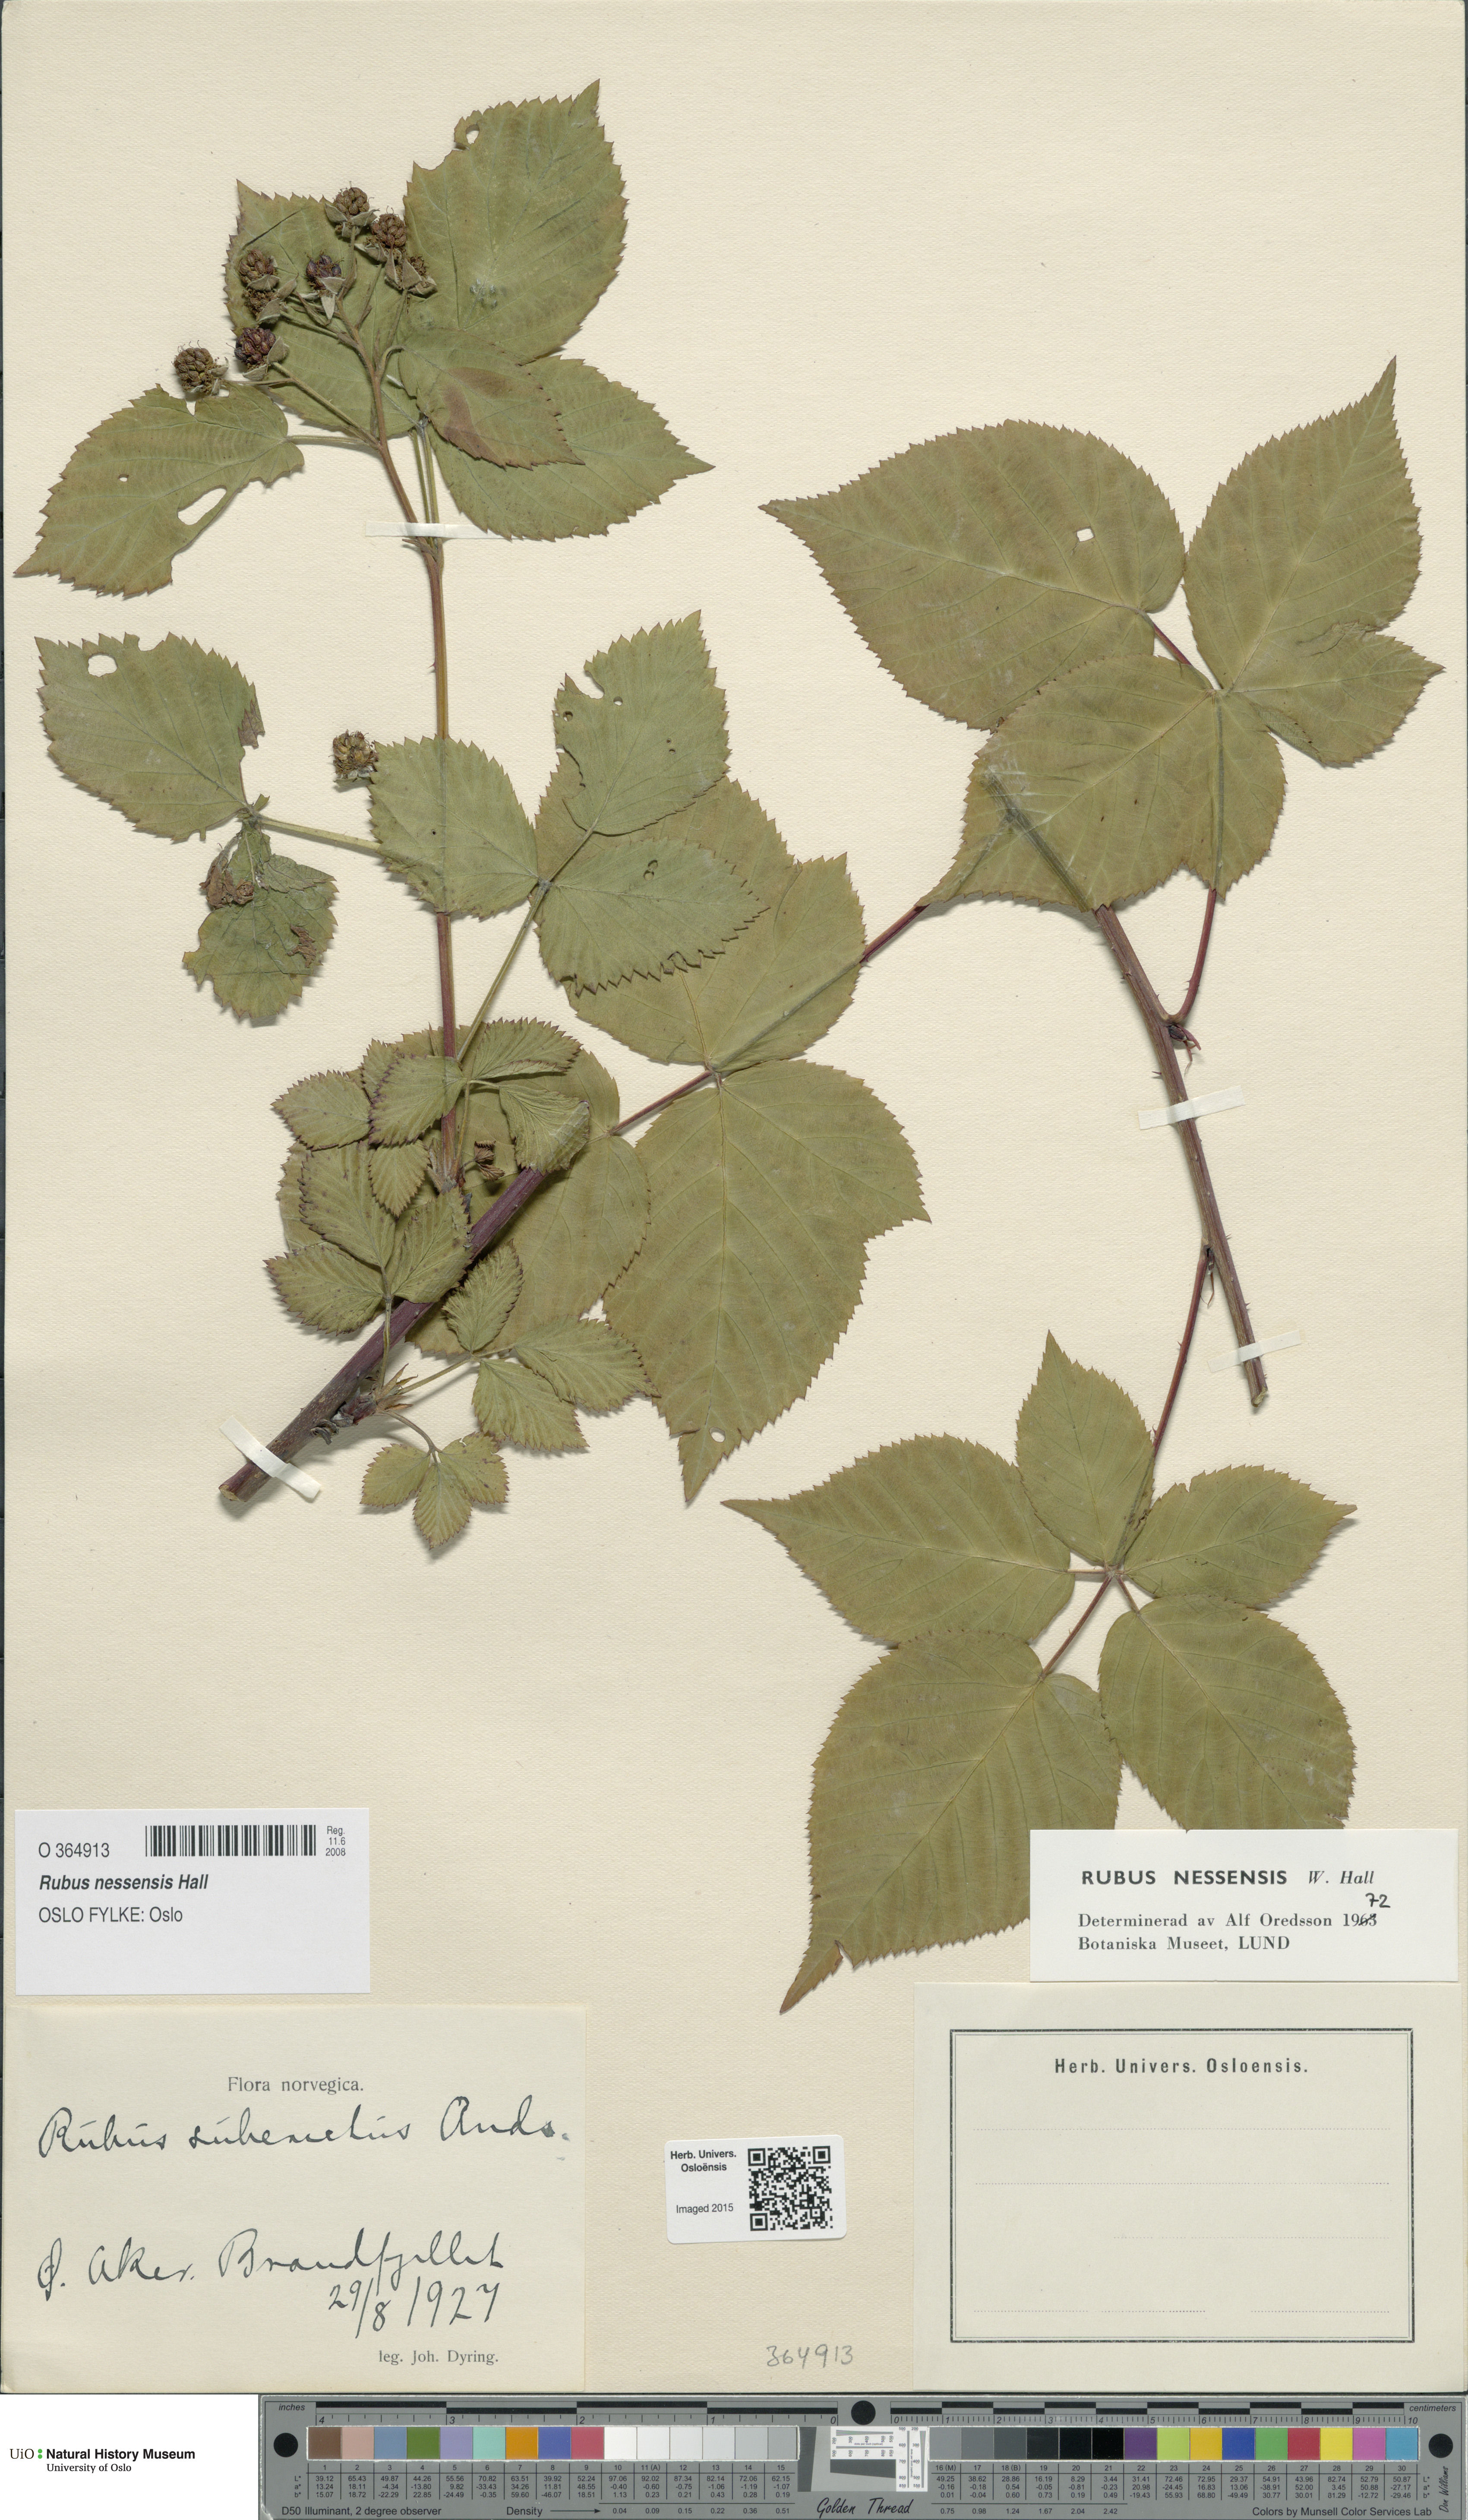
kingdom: Plantae
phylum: Tracheophyta
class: Magnoliopsida
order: Rosales
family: Rosaceae
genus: Rubus
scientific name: Rubus polonicus
